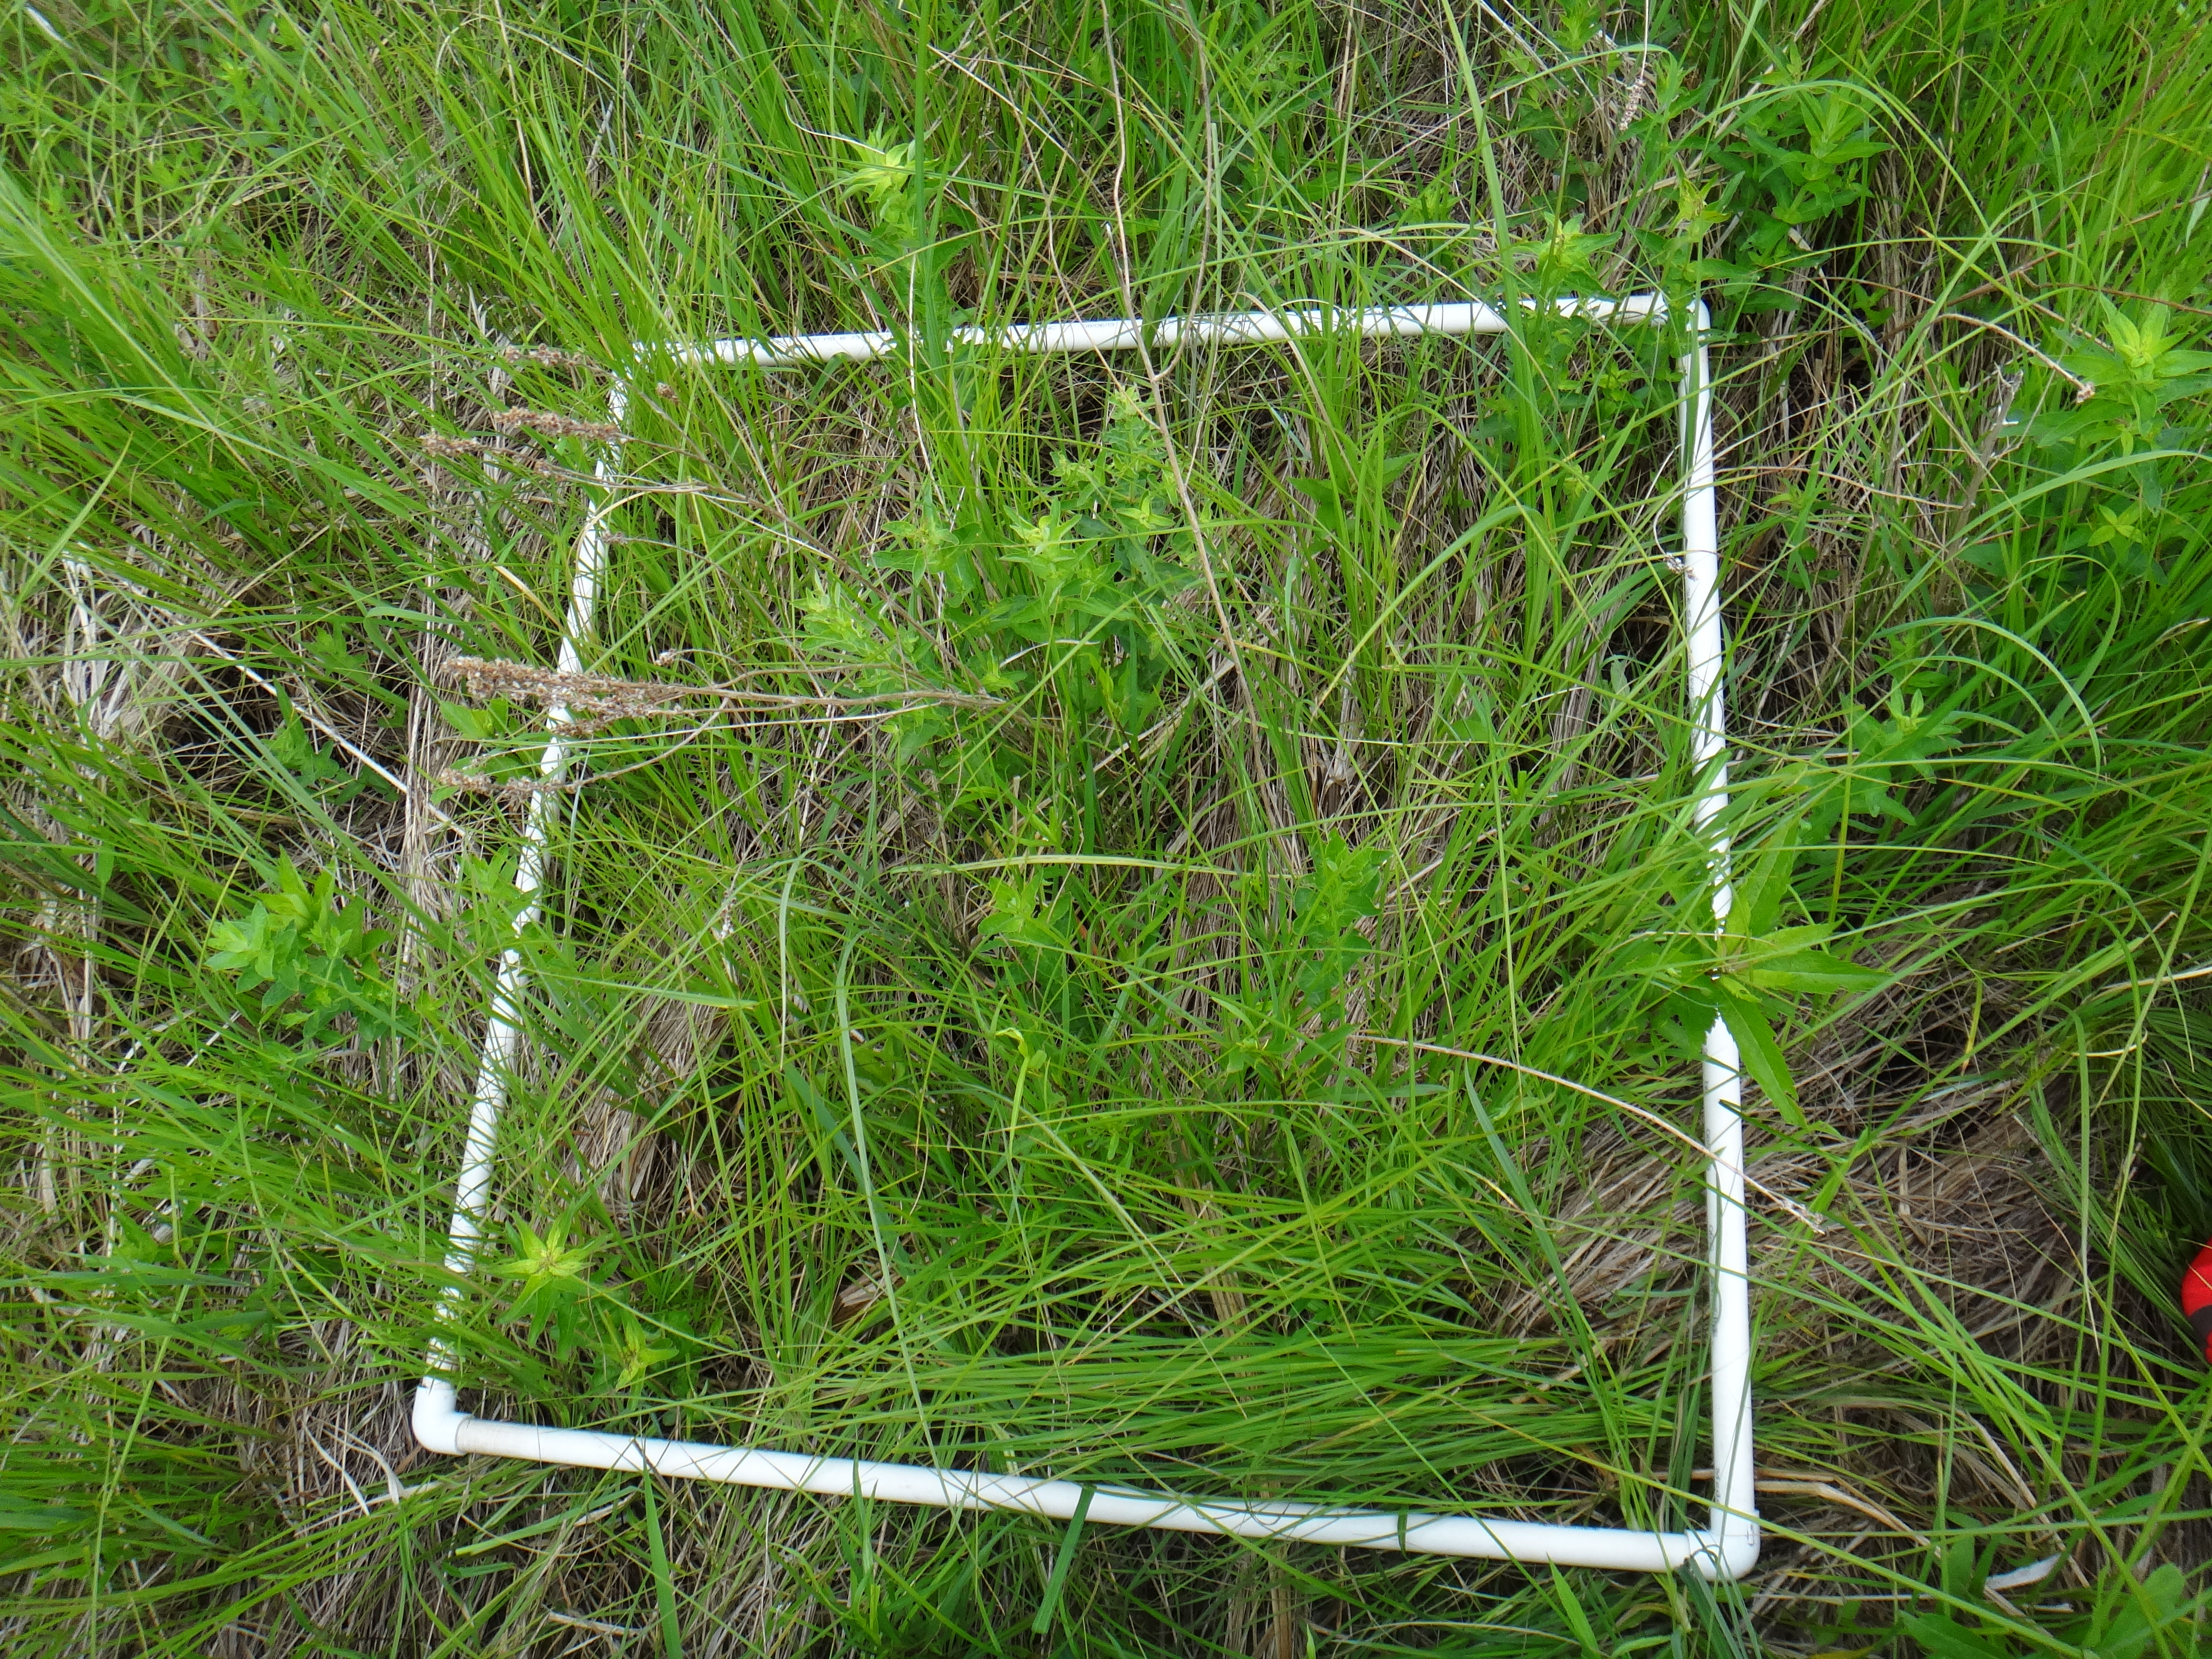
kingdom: Plantae
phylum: Tracheophyta
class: Liliopsida
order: Poales
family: Cyperaceae
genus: Carex
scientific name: Carex lasiocarpa
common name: Slender sedge
